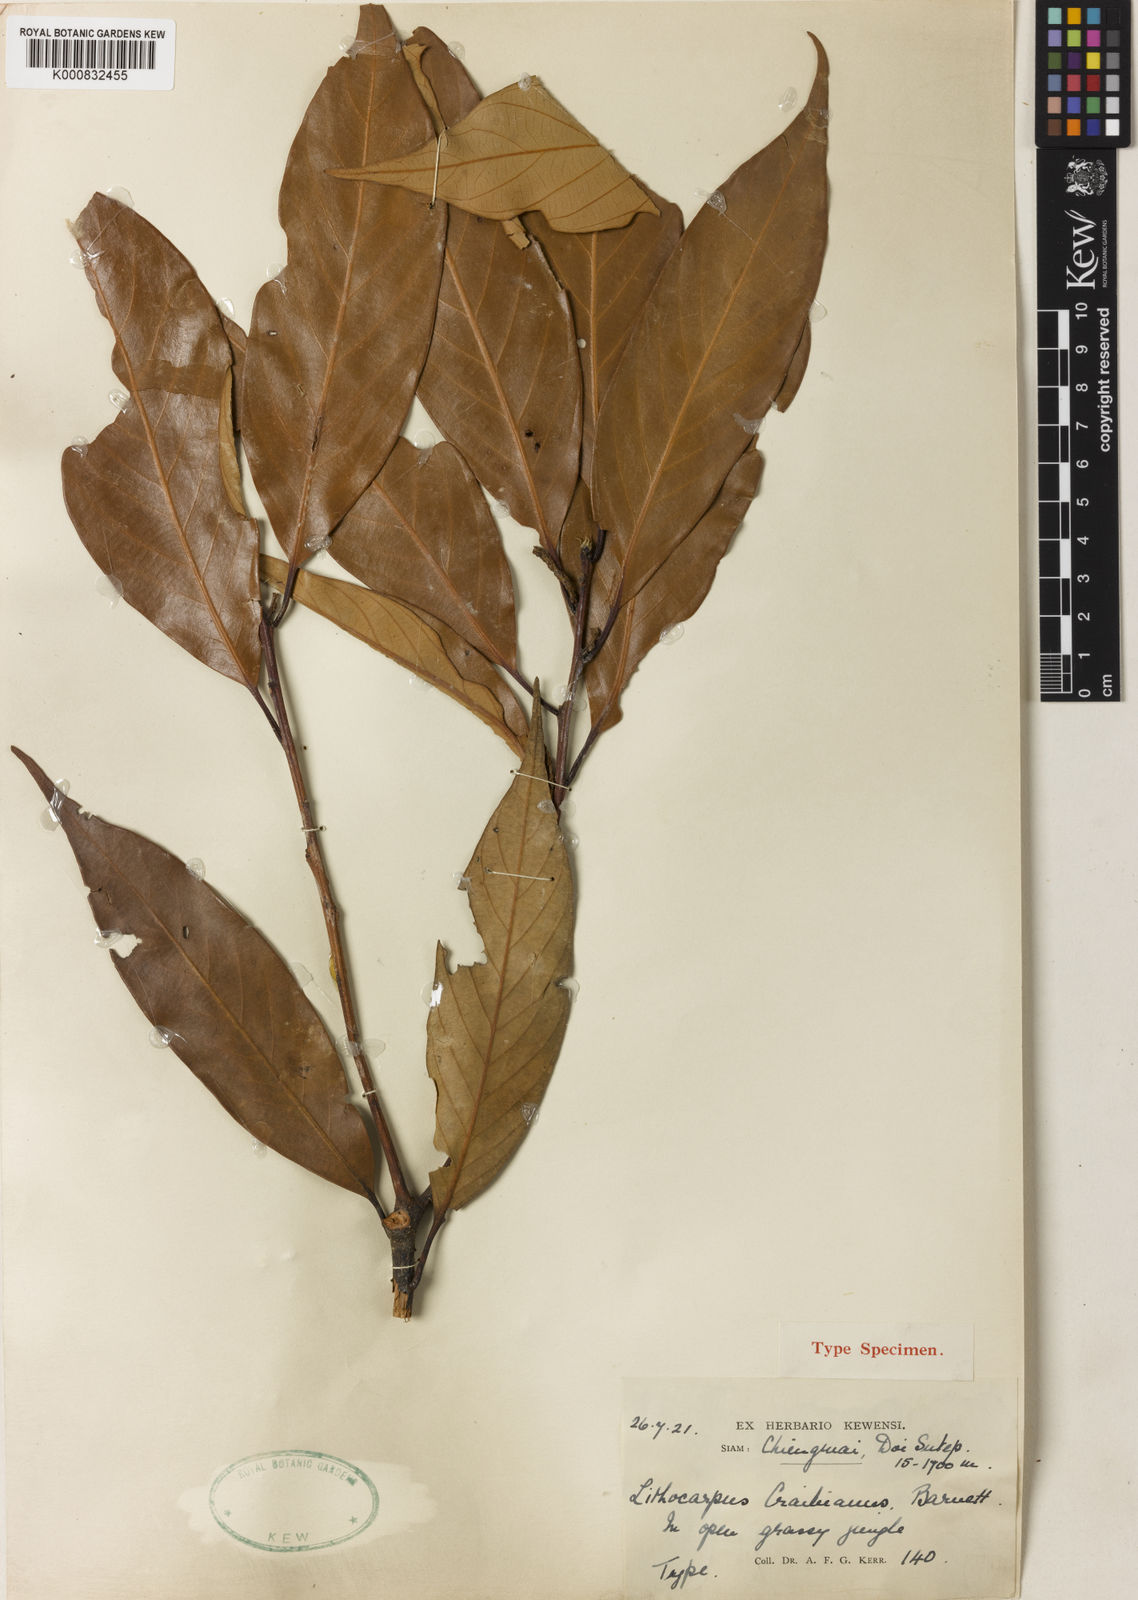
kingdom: Plantae
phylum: Tracheophyta
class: Magnoliopsida
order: Fagales
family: Fagaceae
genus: Lithocarpus
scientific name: Lithocarpus craibianus
